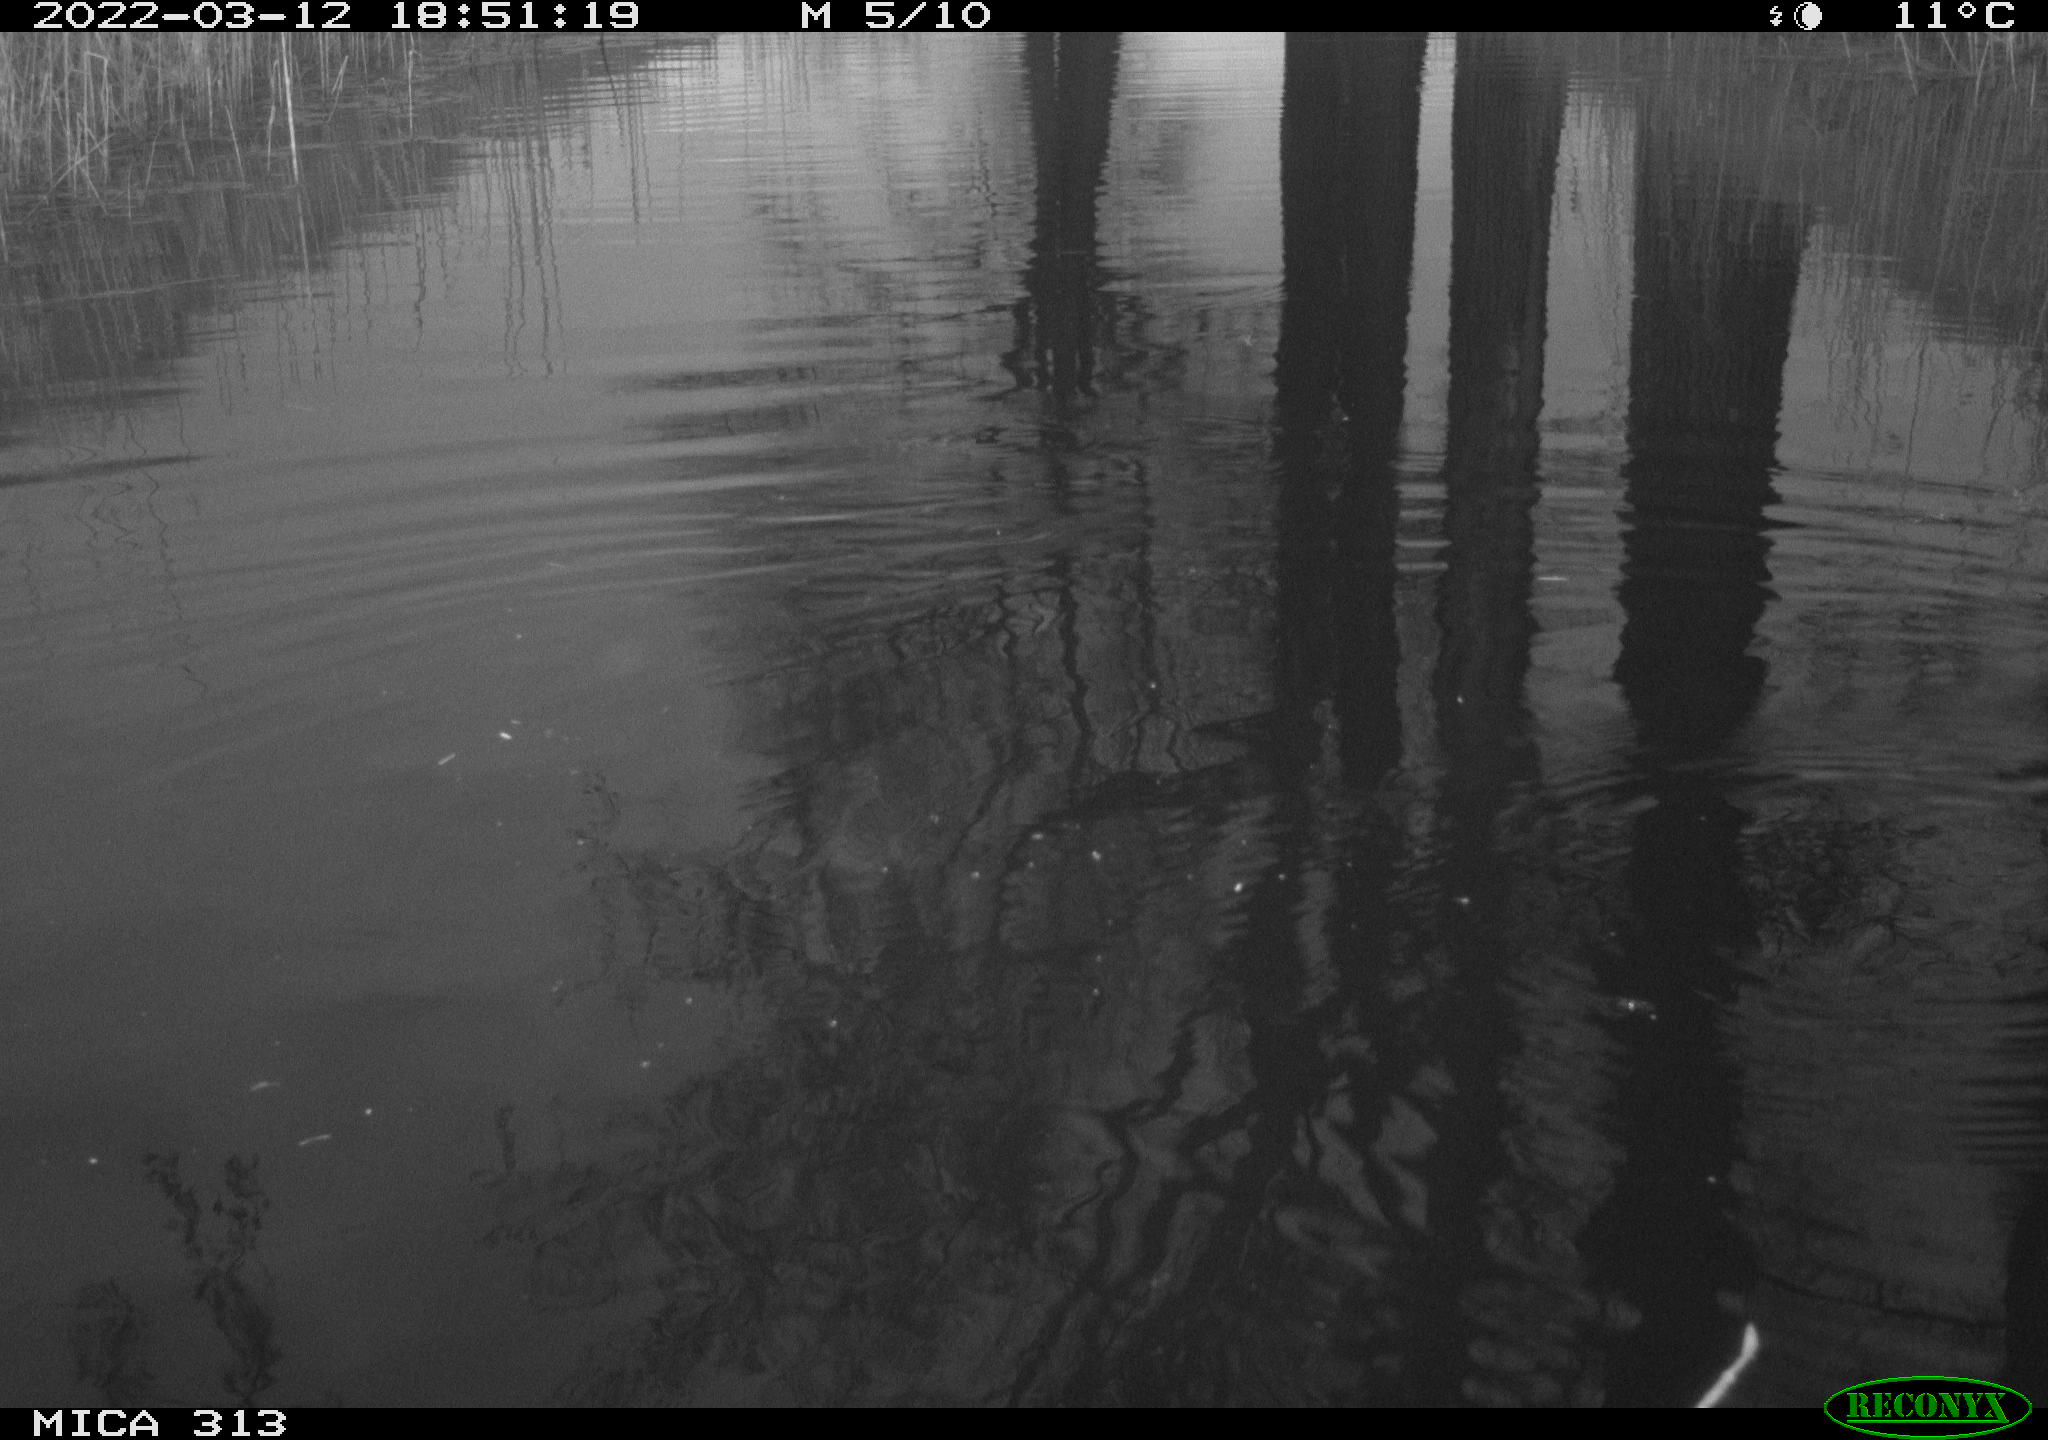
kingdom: Animalia
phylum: Chordata
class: Aves
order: Anseriformes
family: Anatidae
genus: Anas
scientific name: Anas platyrhynchos
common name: Mallard
